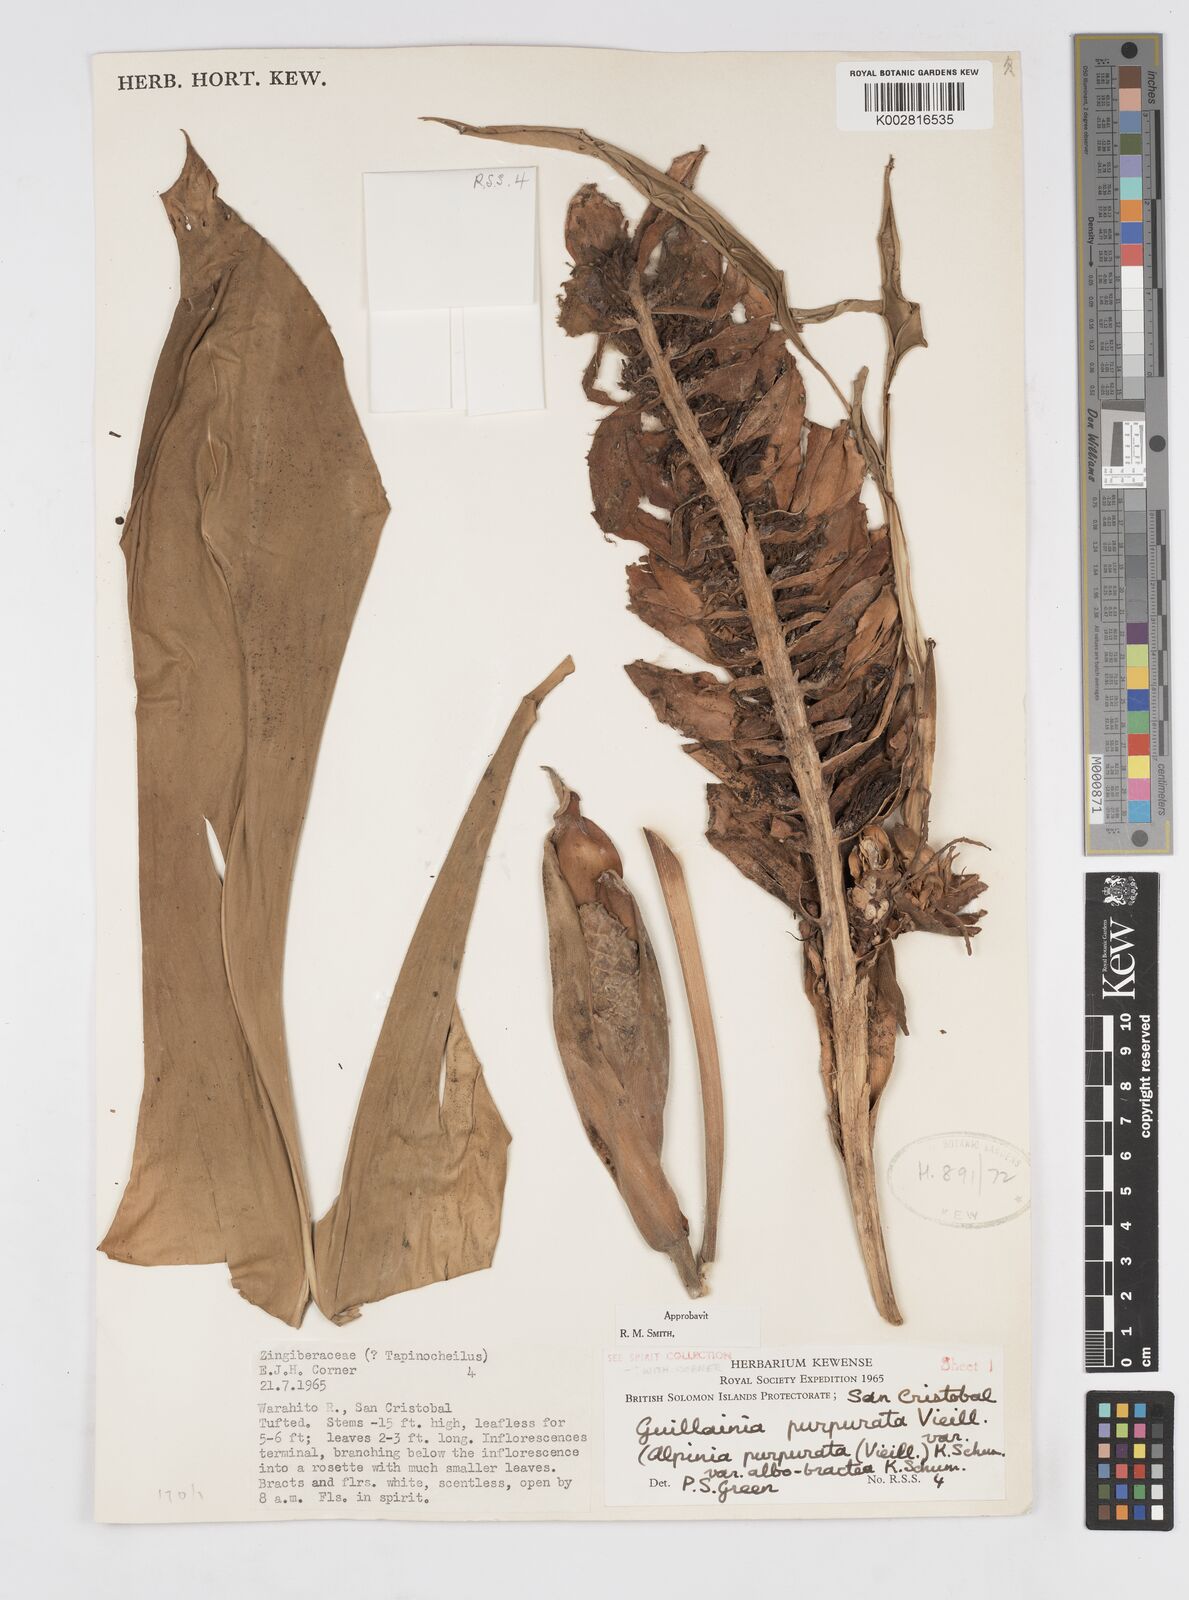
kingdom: Plantae
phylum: Tracheophyta
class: Liliopsida
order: Zingiberales
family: Zingiberaceae
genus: Alpinia
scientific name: Alpinia purpurata
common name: Red ginger
